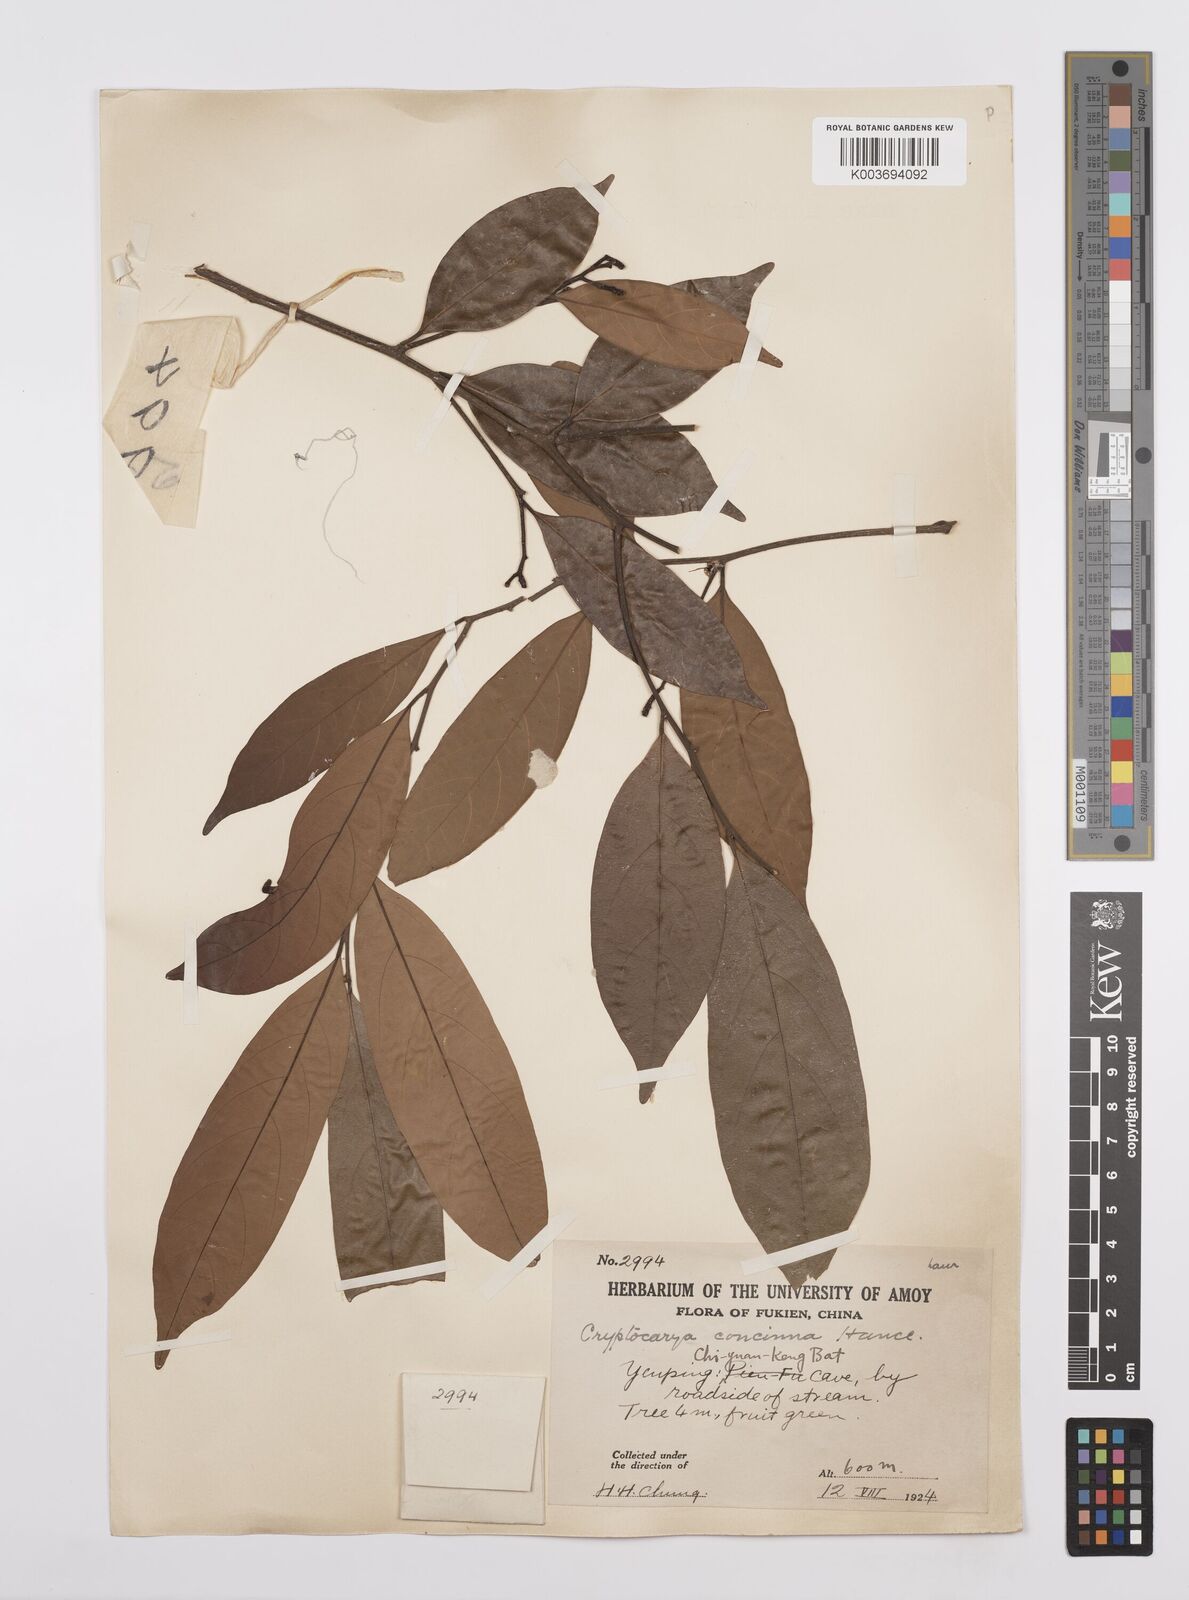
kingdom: Plantae
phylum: Tracheophyta
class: Magnoliopsida
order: Laurales
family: Lauraceae
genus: Cryptocarya
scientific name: Cryptocarya concinna
